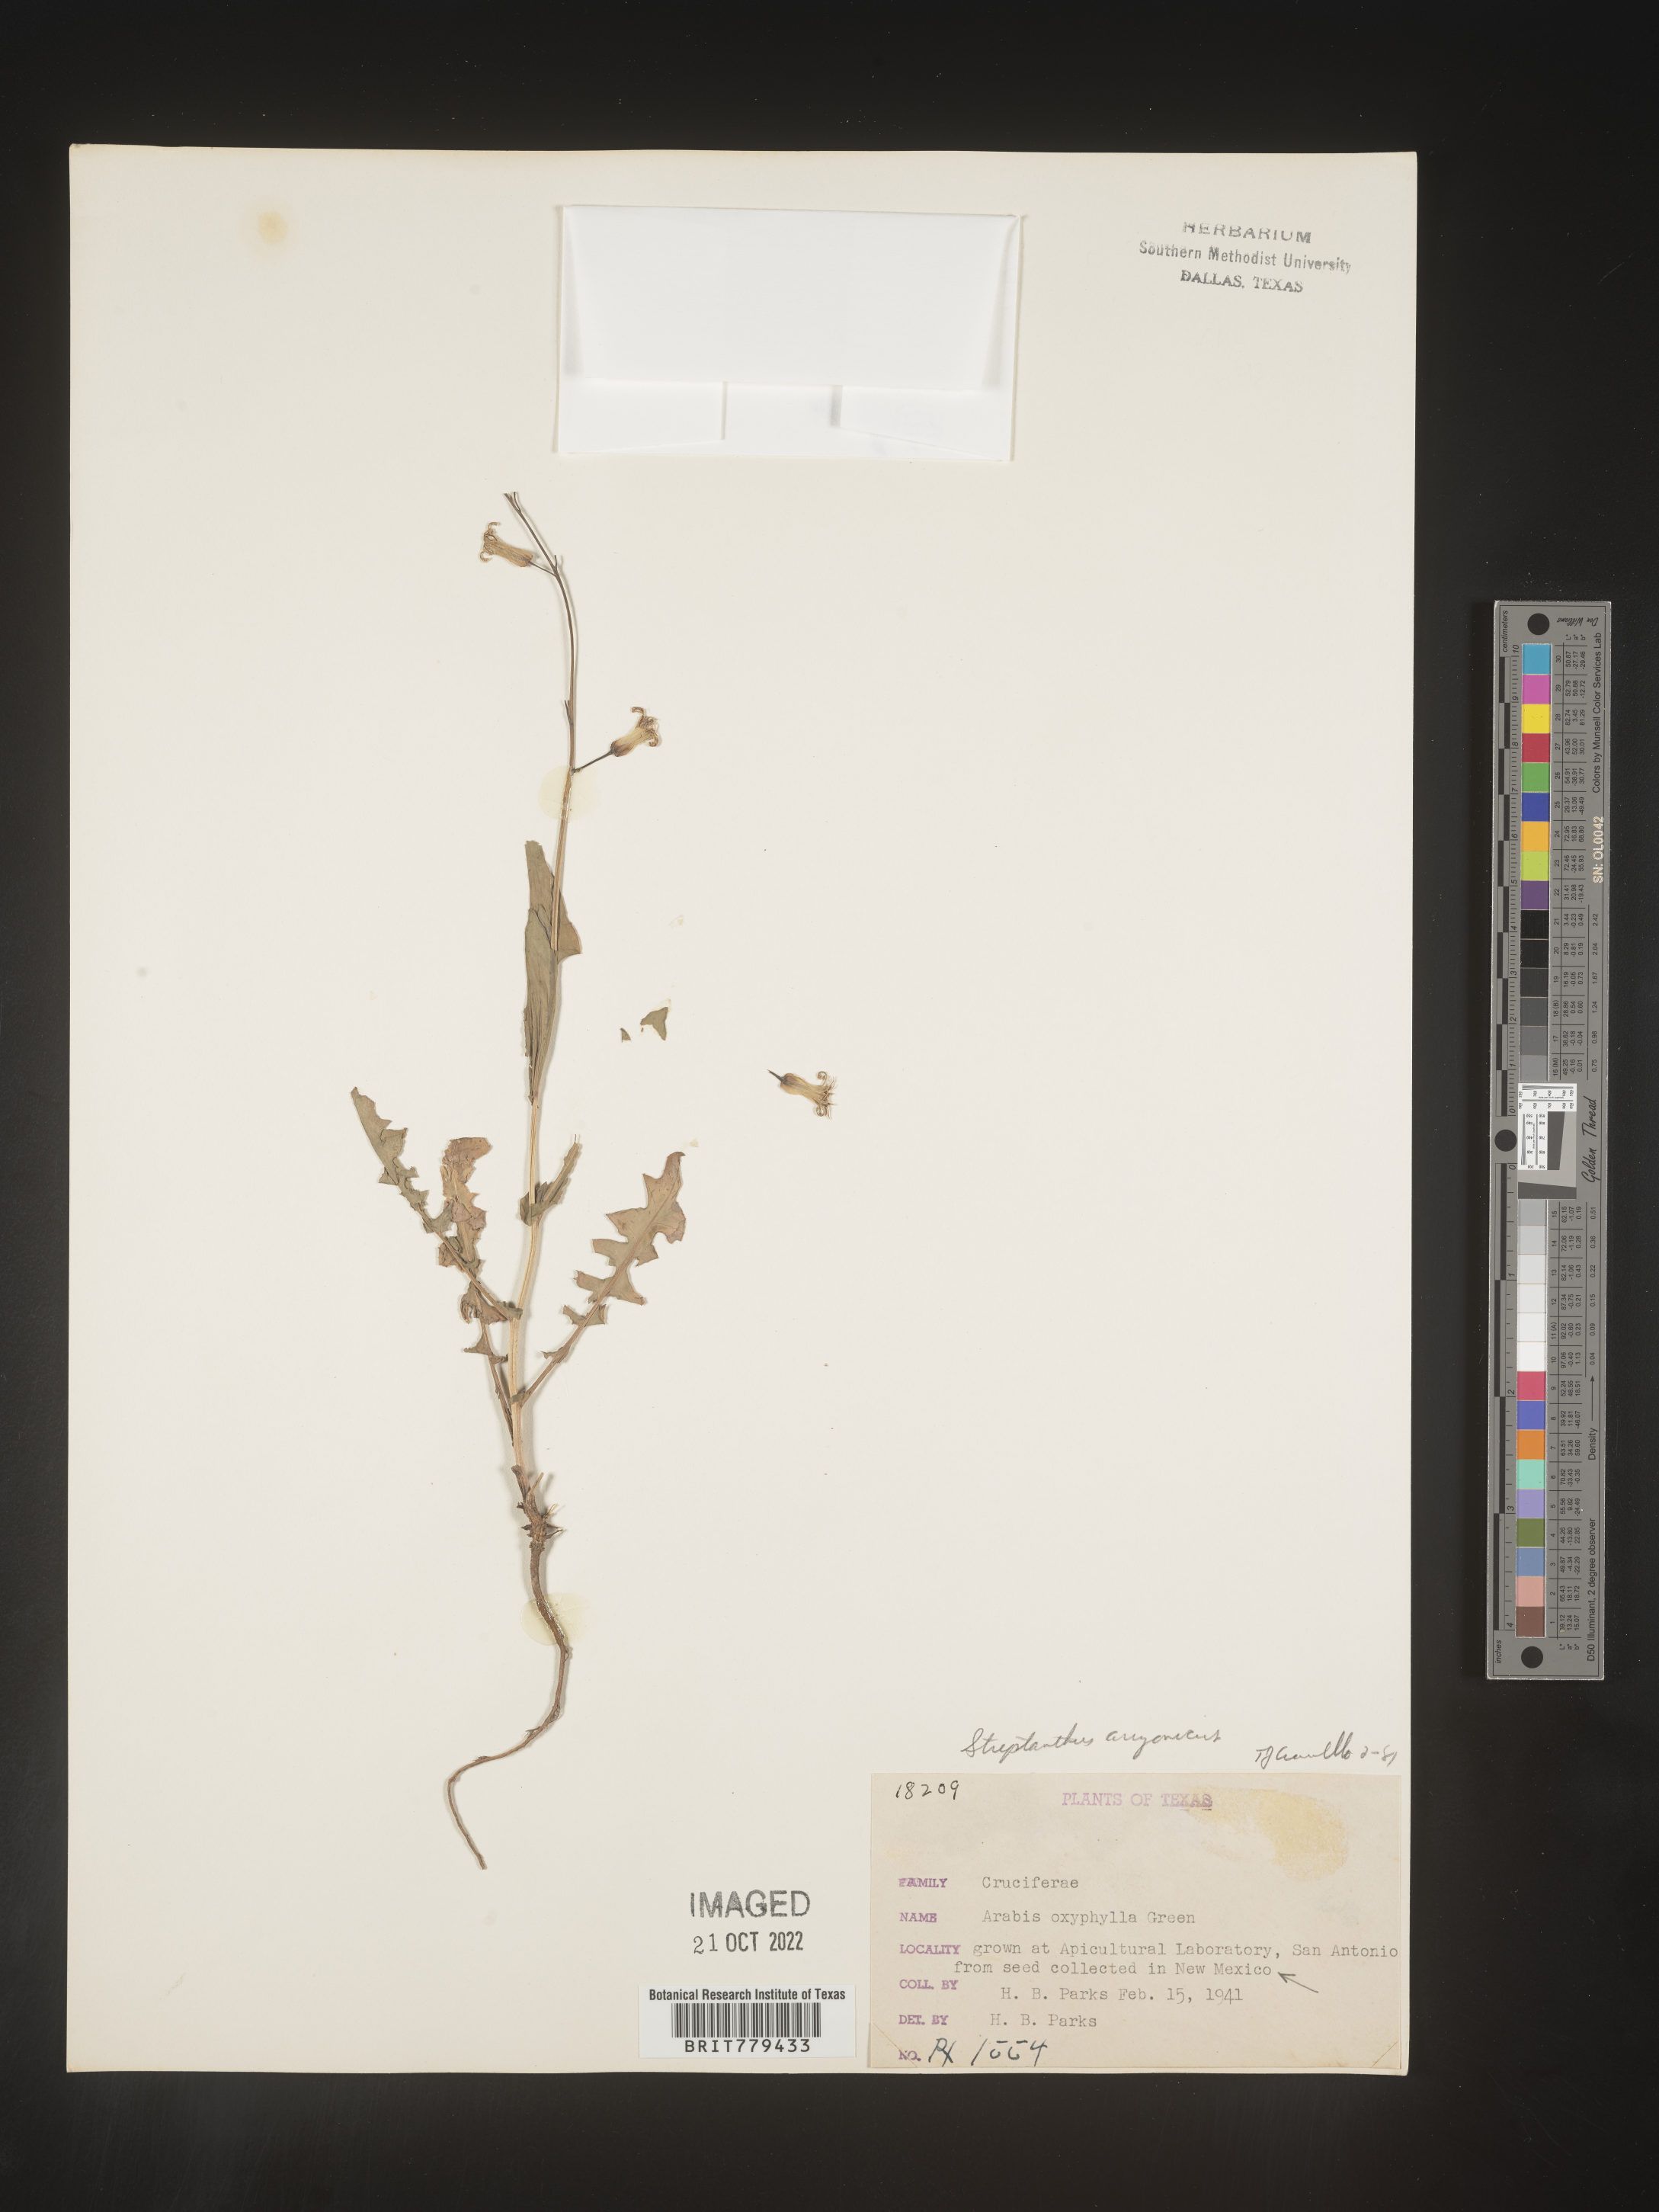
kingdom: Plantae
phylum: Tracheophyta
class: Magnoliopsida
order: Brassicales
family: Brassicaceae
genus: Streptanthus
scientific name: Streptanthus
